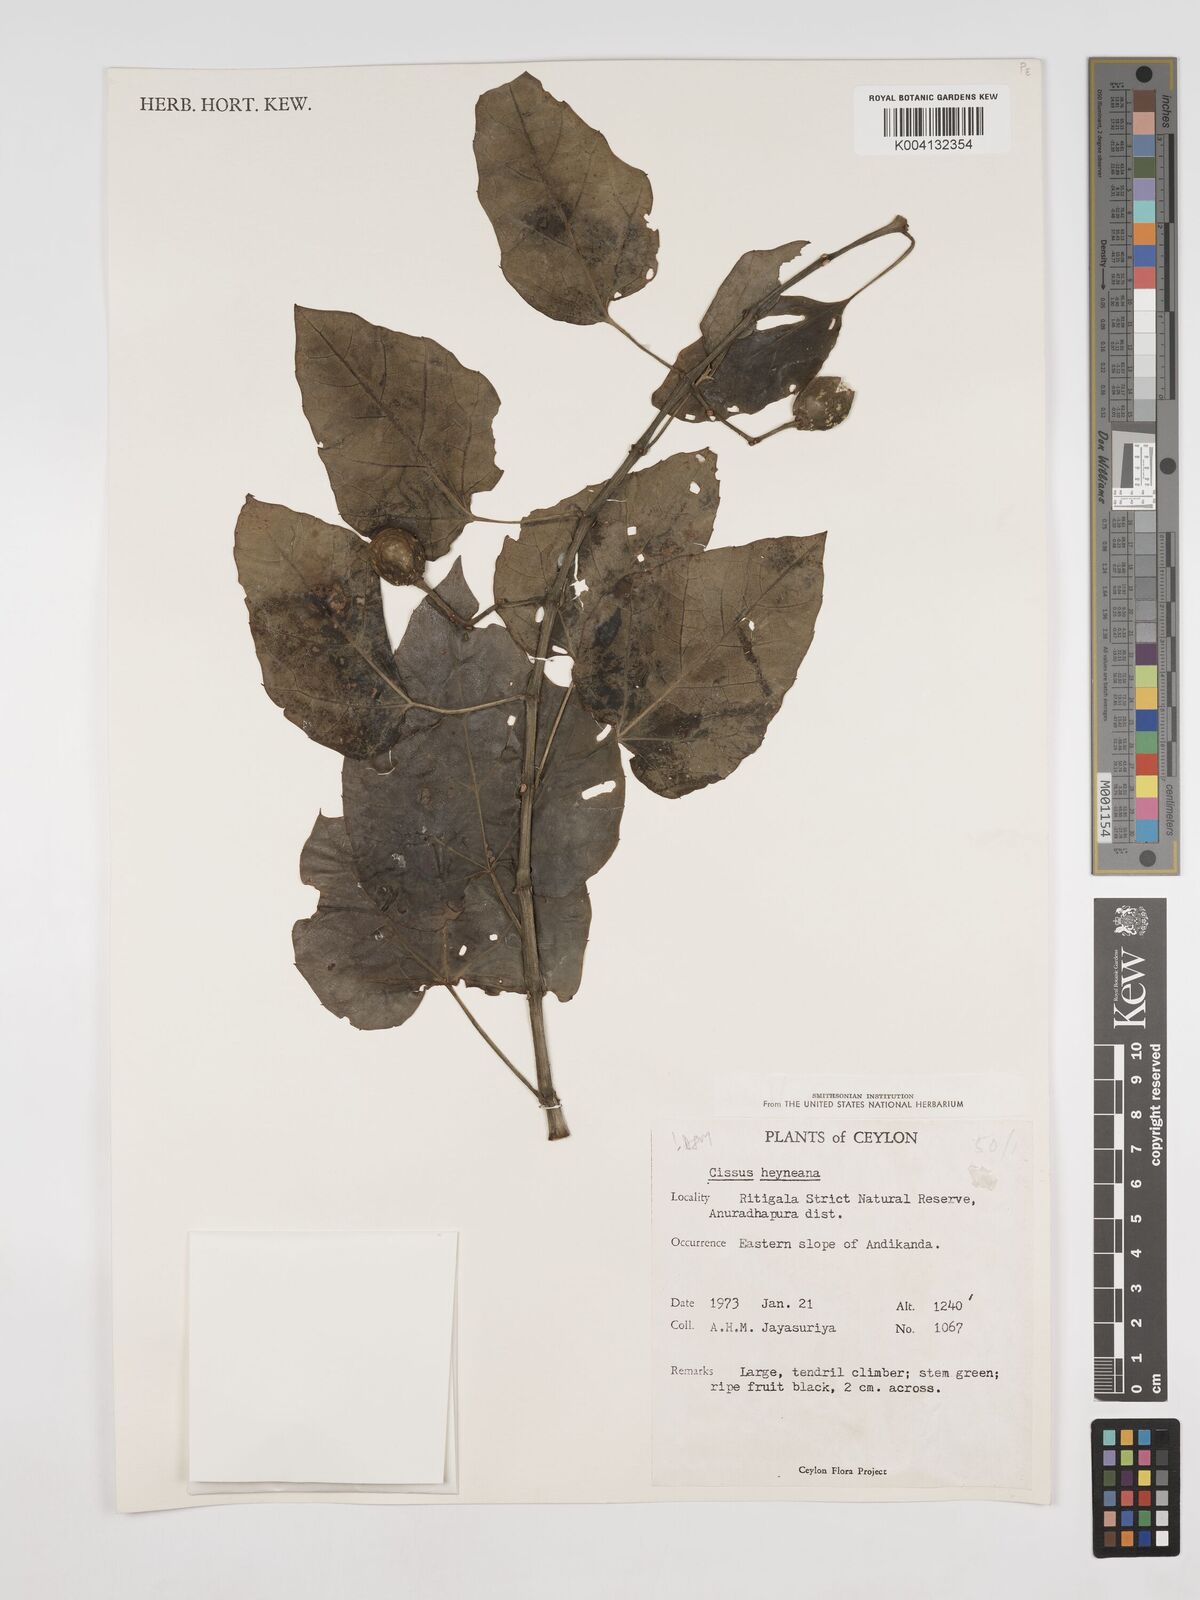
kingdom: Plantae
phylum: Tracheophyta
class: Magnoliopsida
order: Vitales
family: Vitaceae
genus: Cissus
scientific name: Cissus heyneana
